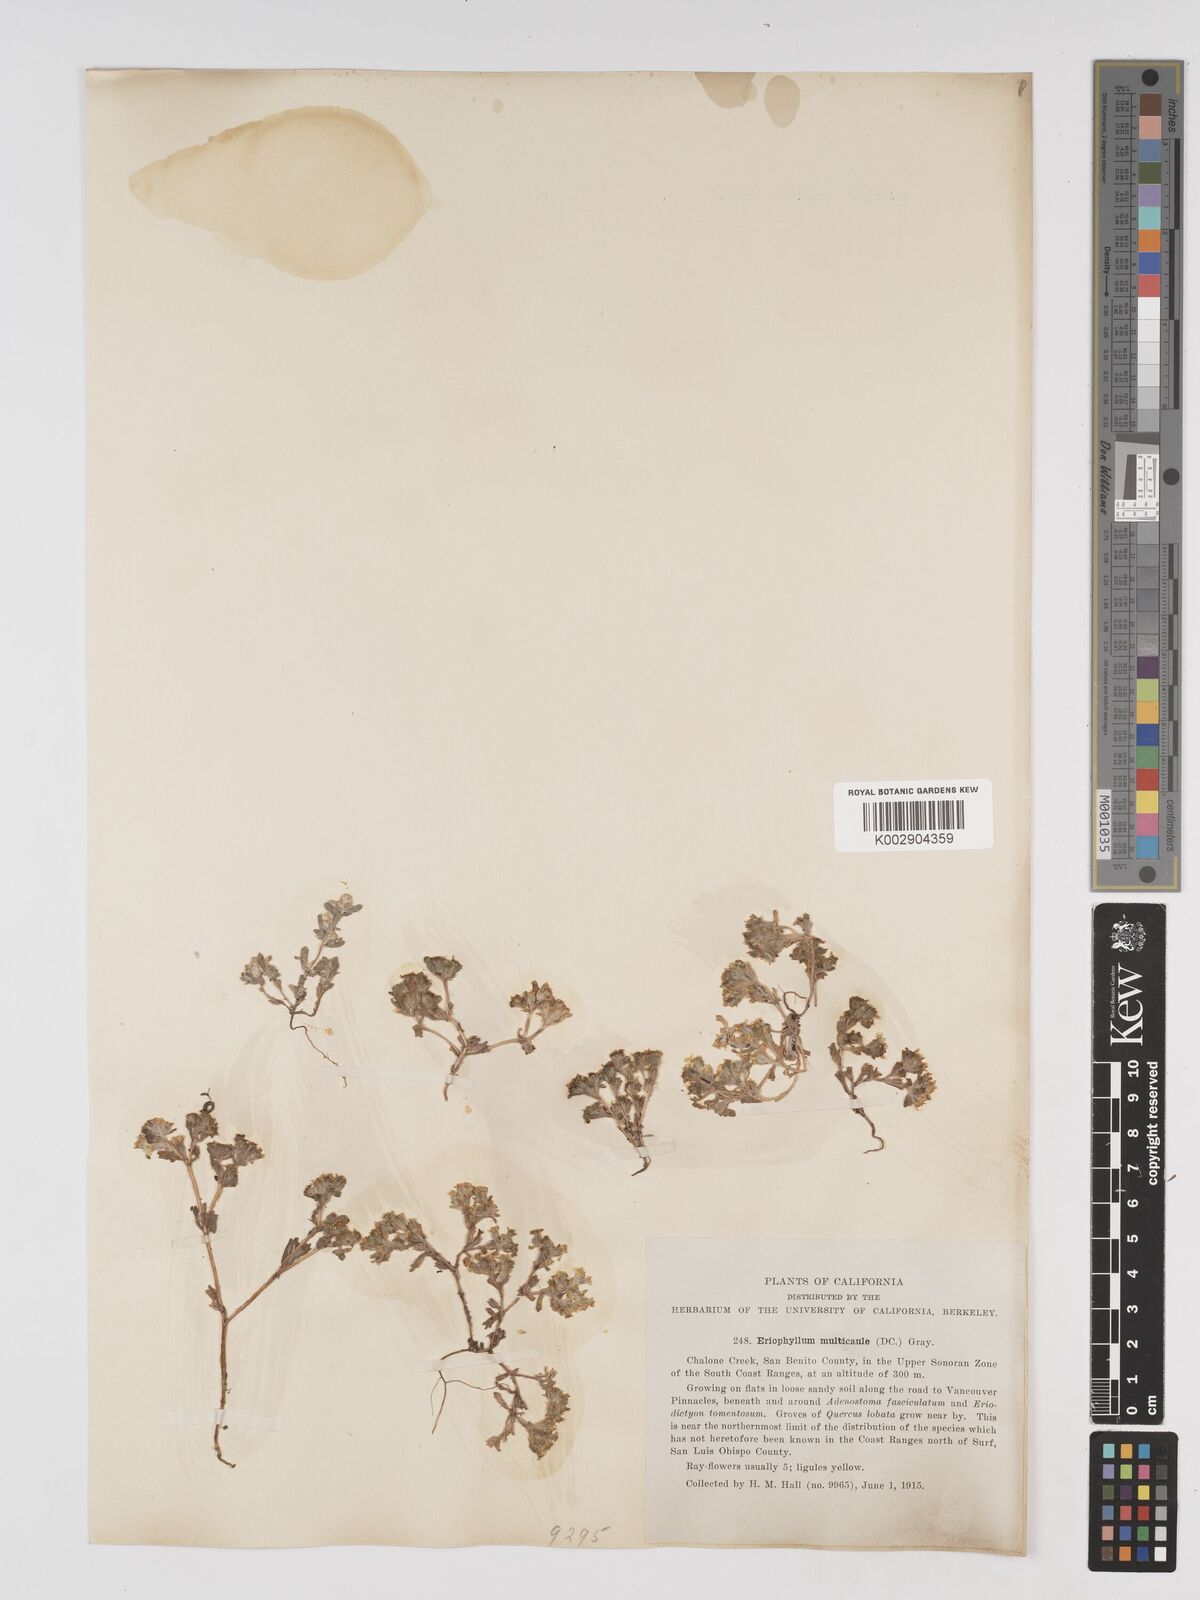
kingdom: Plantae
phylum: Tracheophyta
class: Magnoliopsida
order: Asterales
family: Asteraceae
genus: Eriophyllum
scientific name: Eriophyllum multicaule
